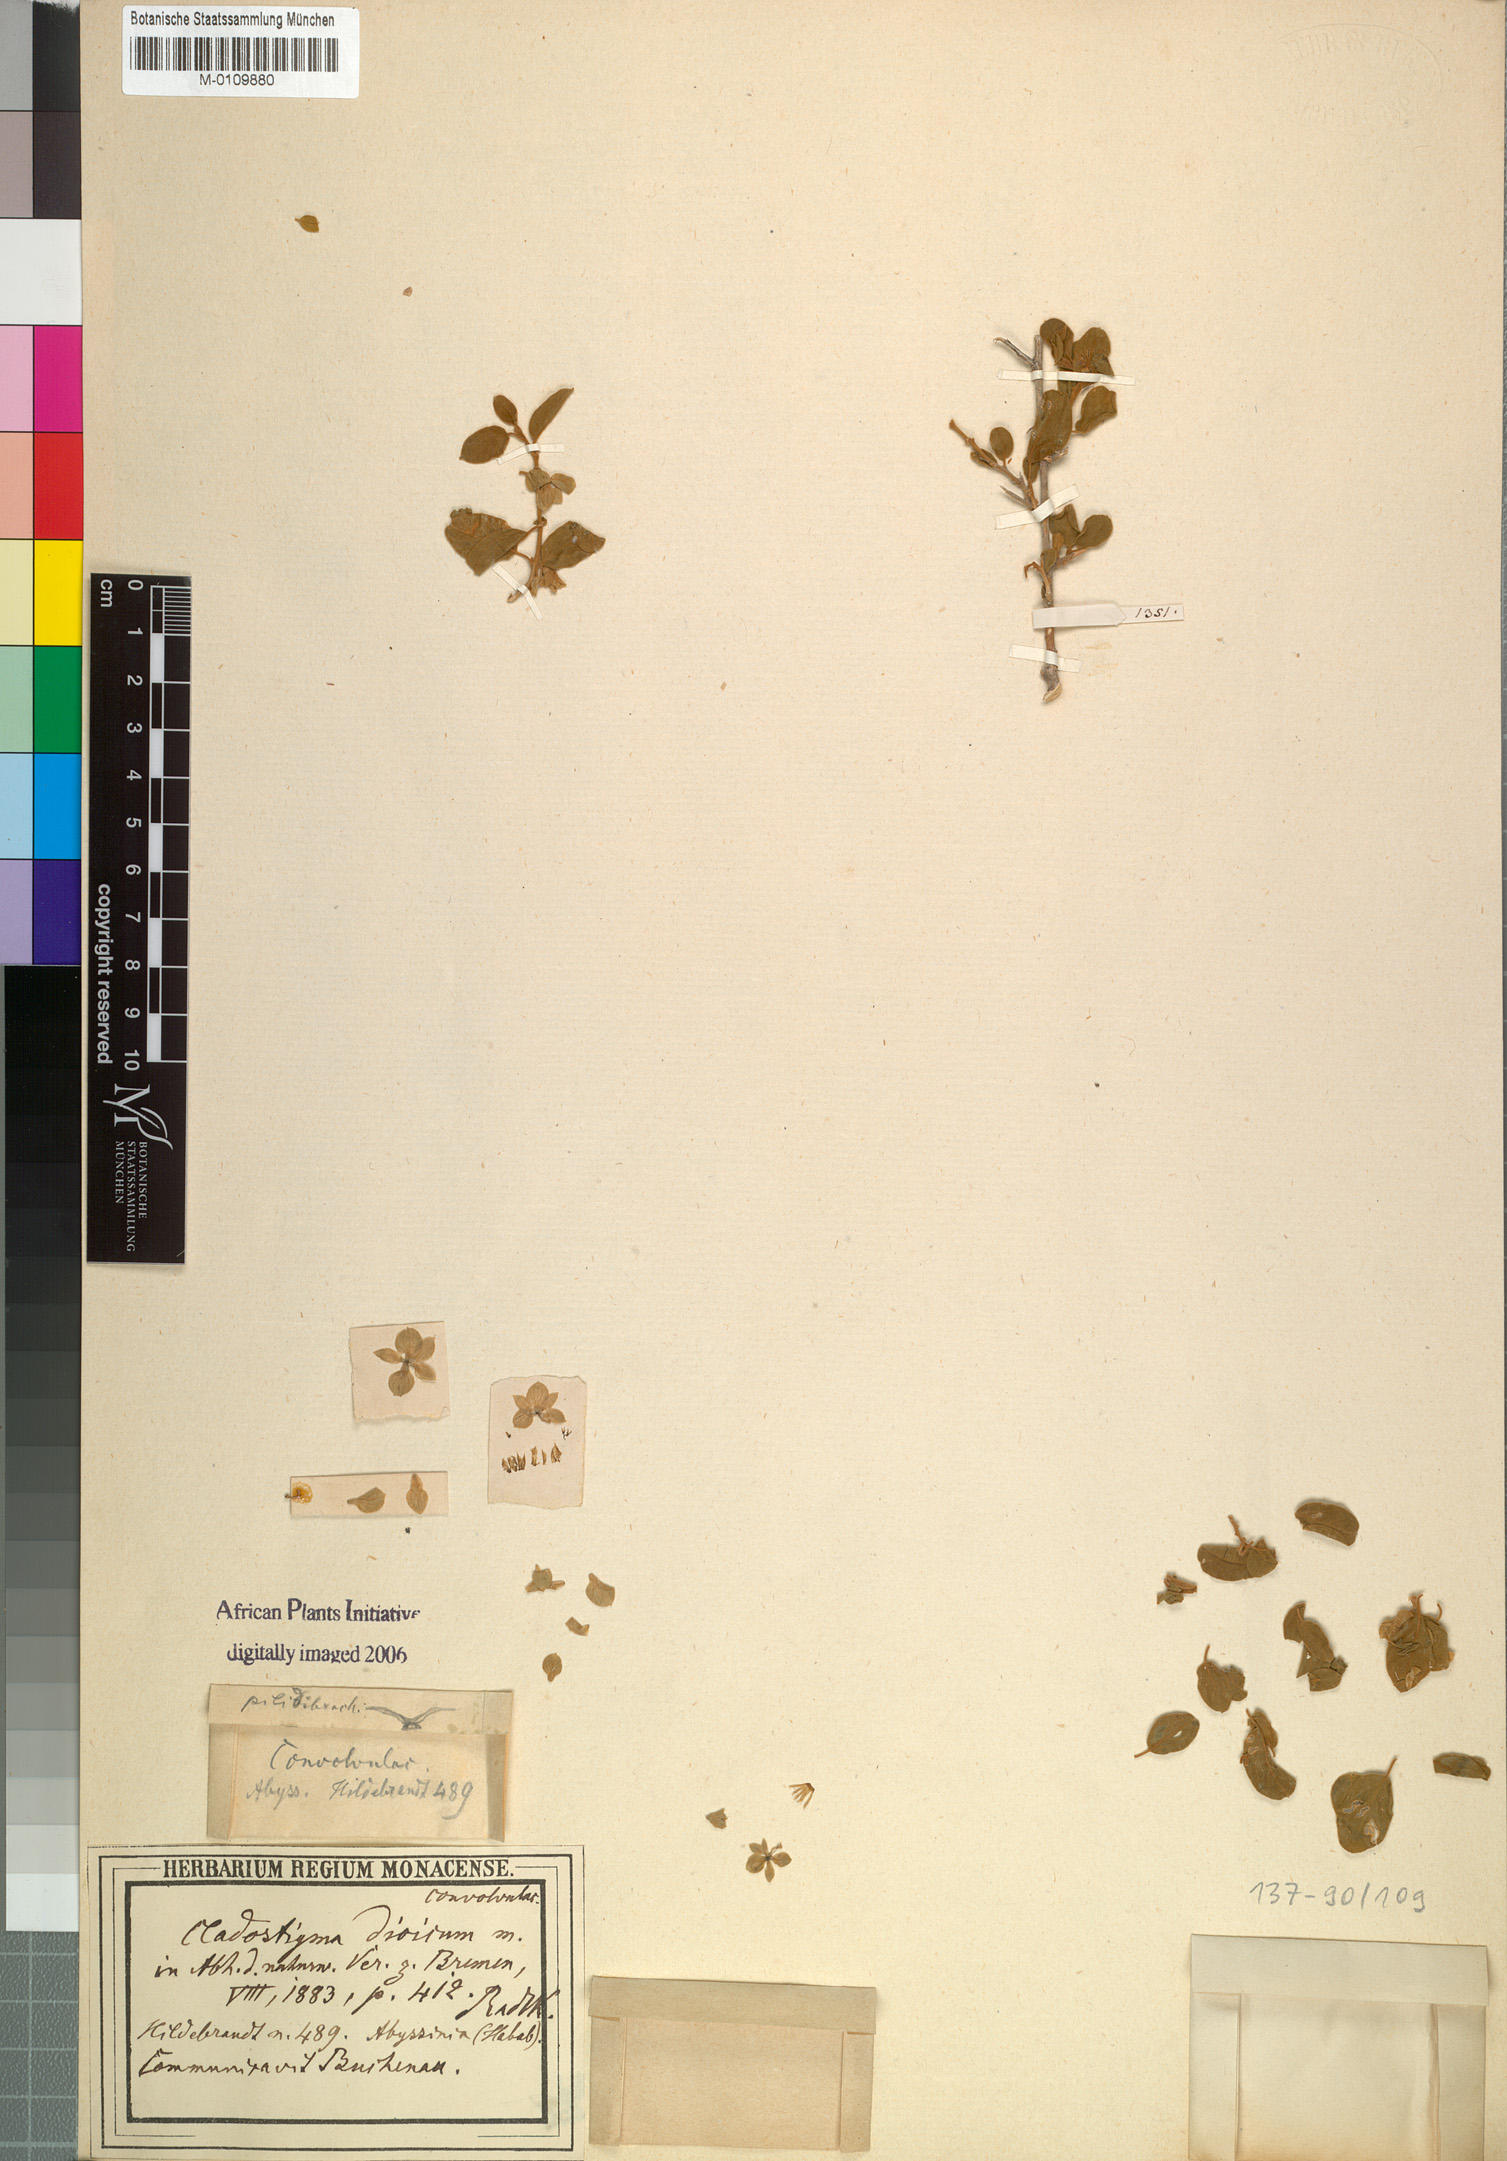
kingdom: Plantae
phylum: Tracheophyta
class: Magnoliopsida
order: Solanales
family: Convolvulaceae
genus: Cladostigma
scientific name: Cladostigma dioicum
